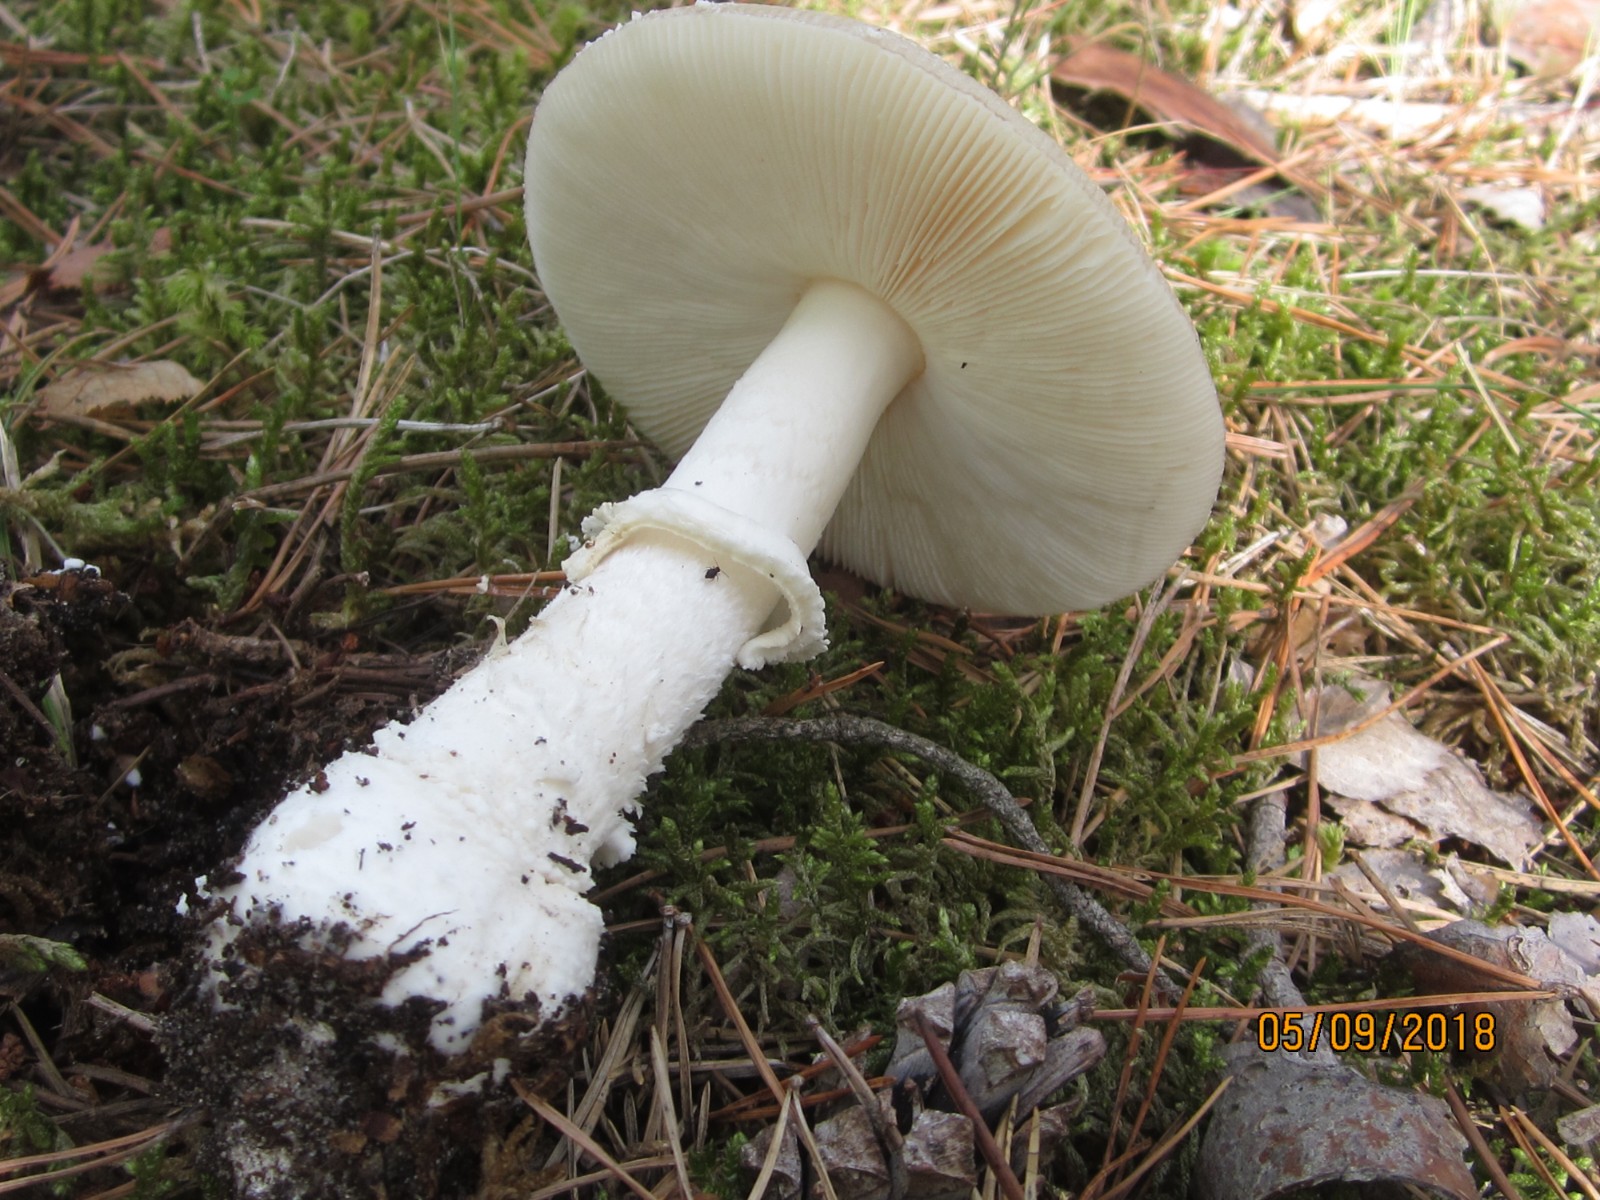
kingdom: Fungi
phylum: Basidiomycota
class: Agaricomycetes
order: Agaricales
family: Amanitaceae
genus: Amanita
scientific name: Amanita pantherina
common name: panter-fluesvamp
